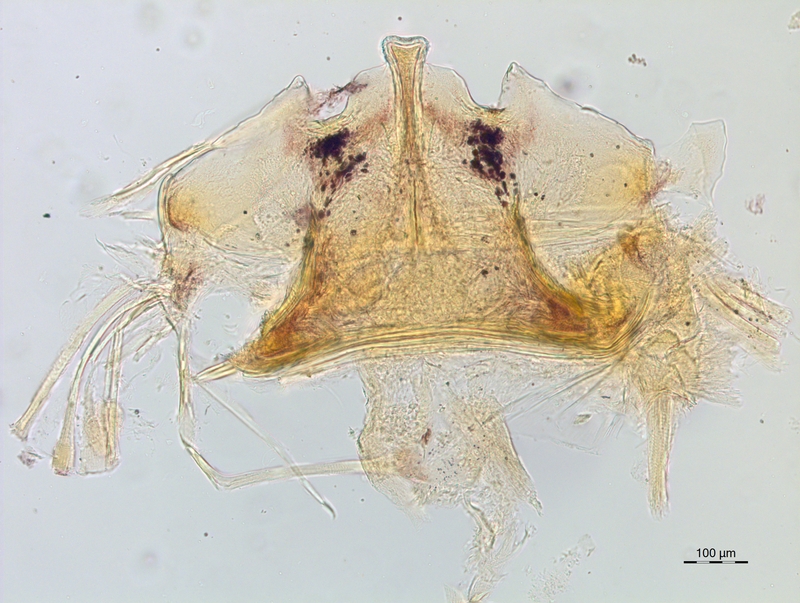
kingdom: Animalia
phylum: Arthropoda
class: Diplopoda
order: Chordeumatida
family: Craspedosomatidae
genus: Craspedosoma
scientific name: Craspedosoma taurinorum
